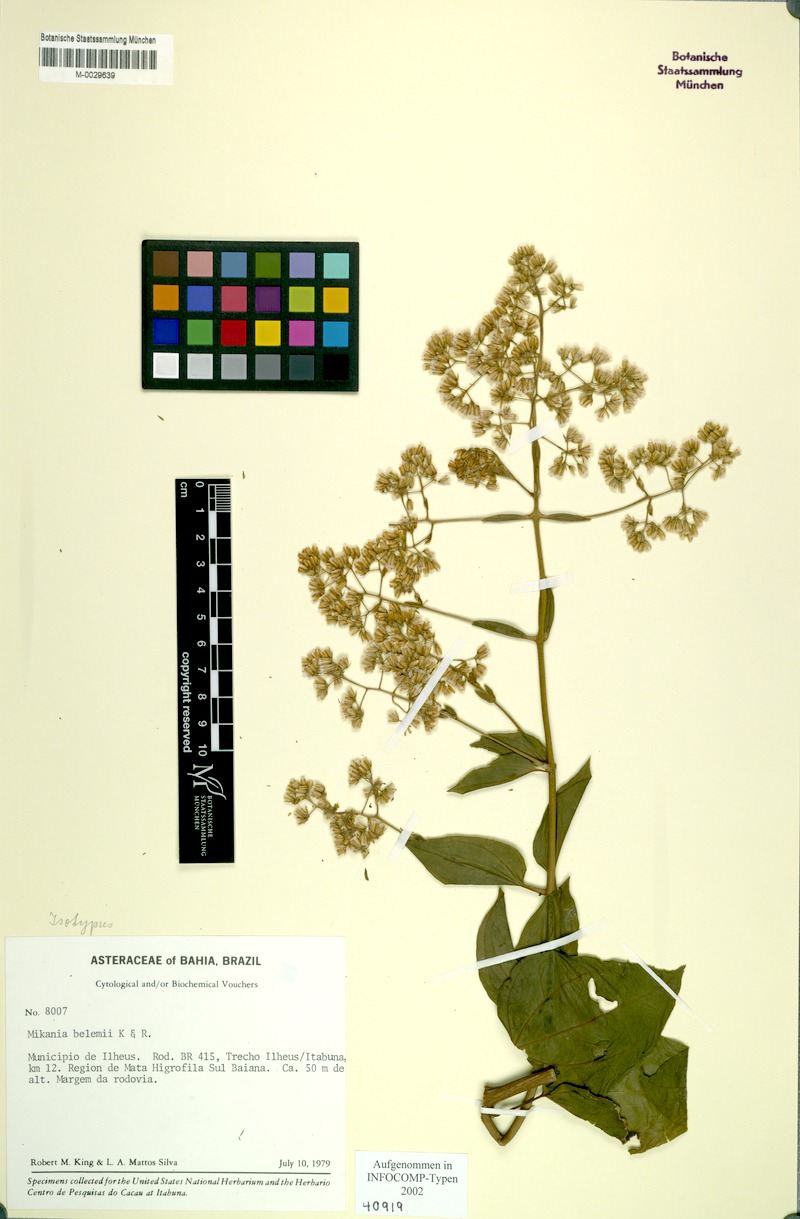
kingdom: Plantae
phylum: Tracheophyta
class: Magnoliopsida
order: Asterales
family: Asteraceae
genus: Mikania
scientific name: Mikania belemii
